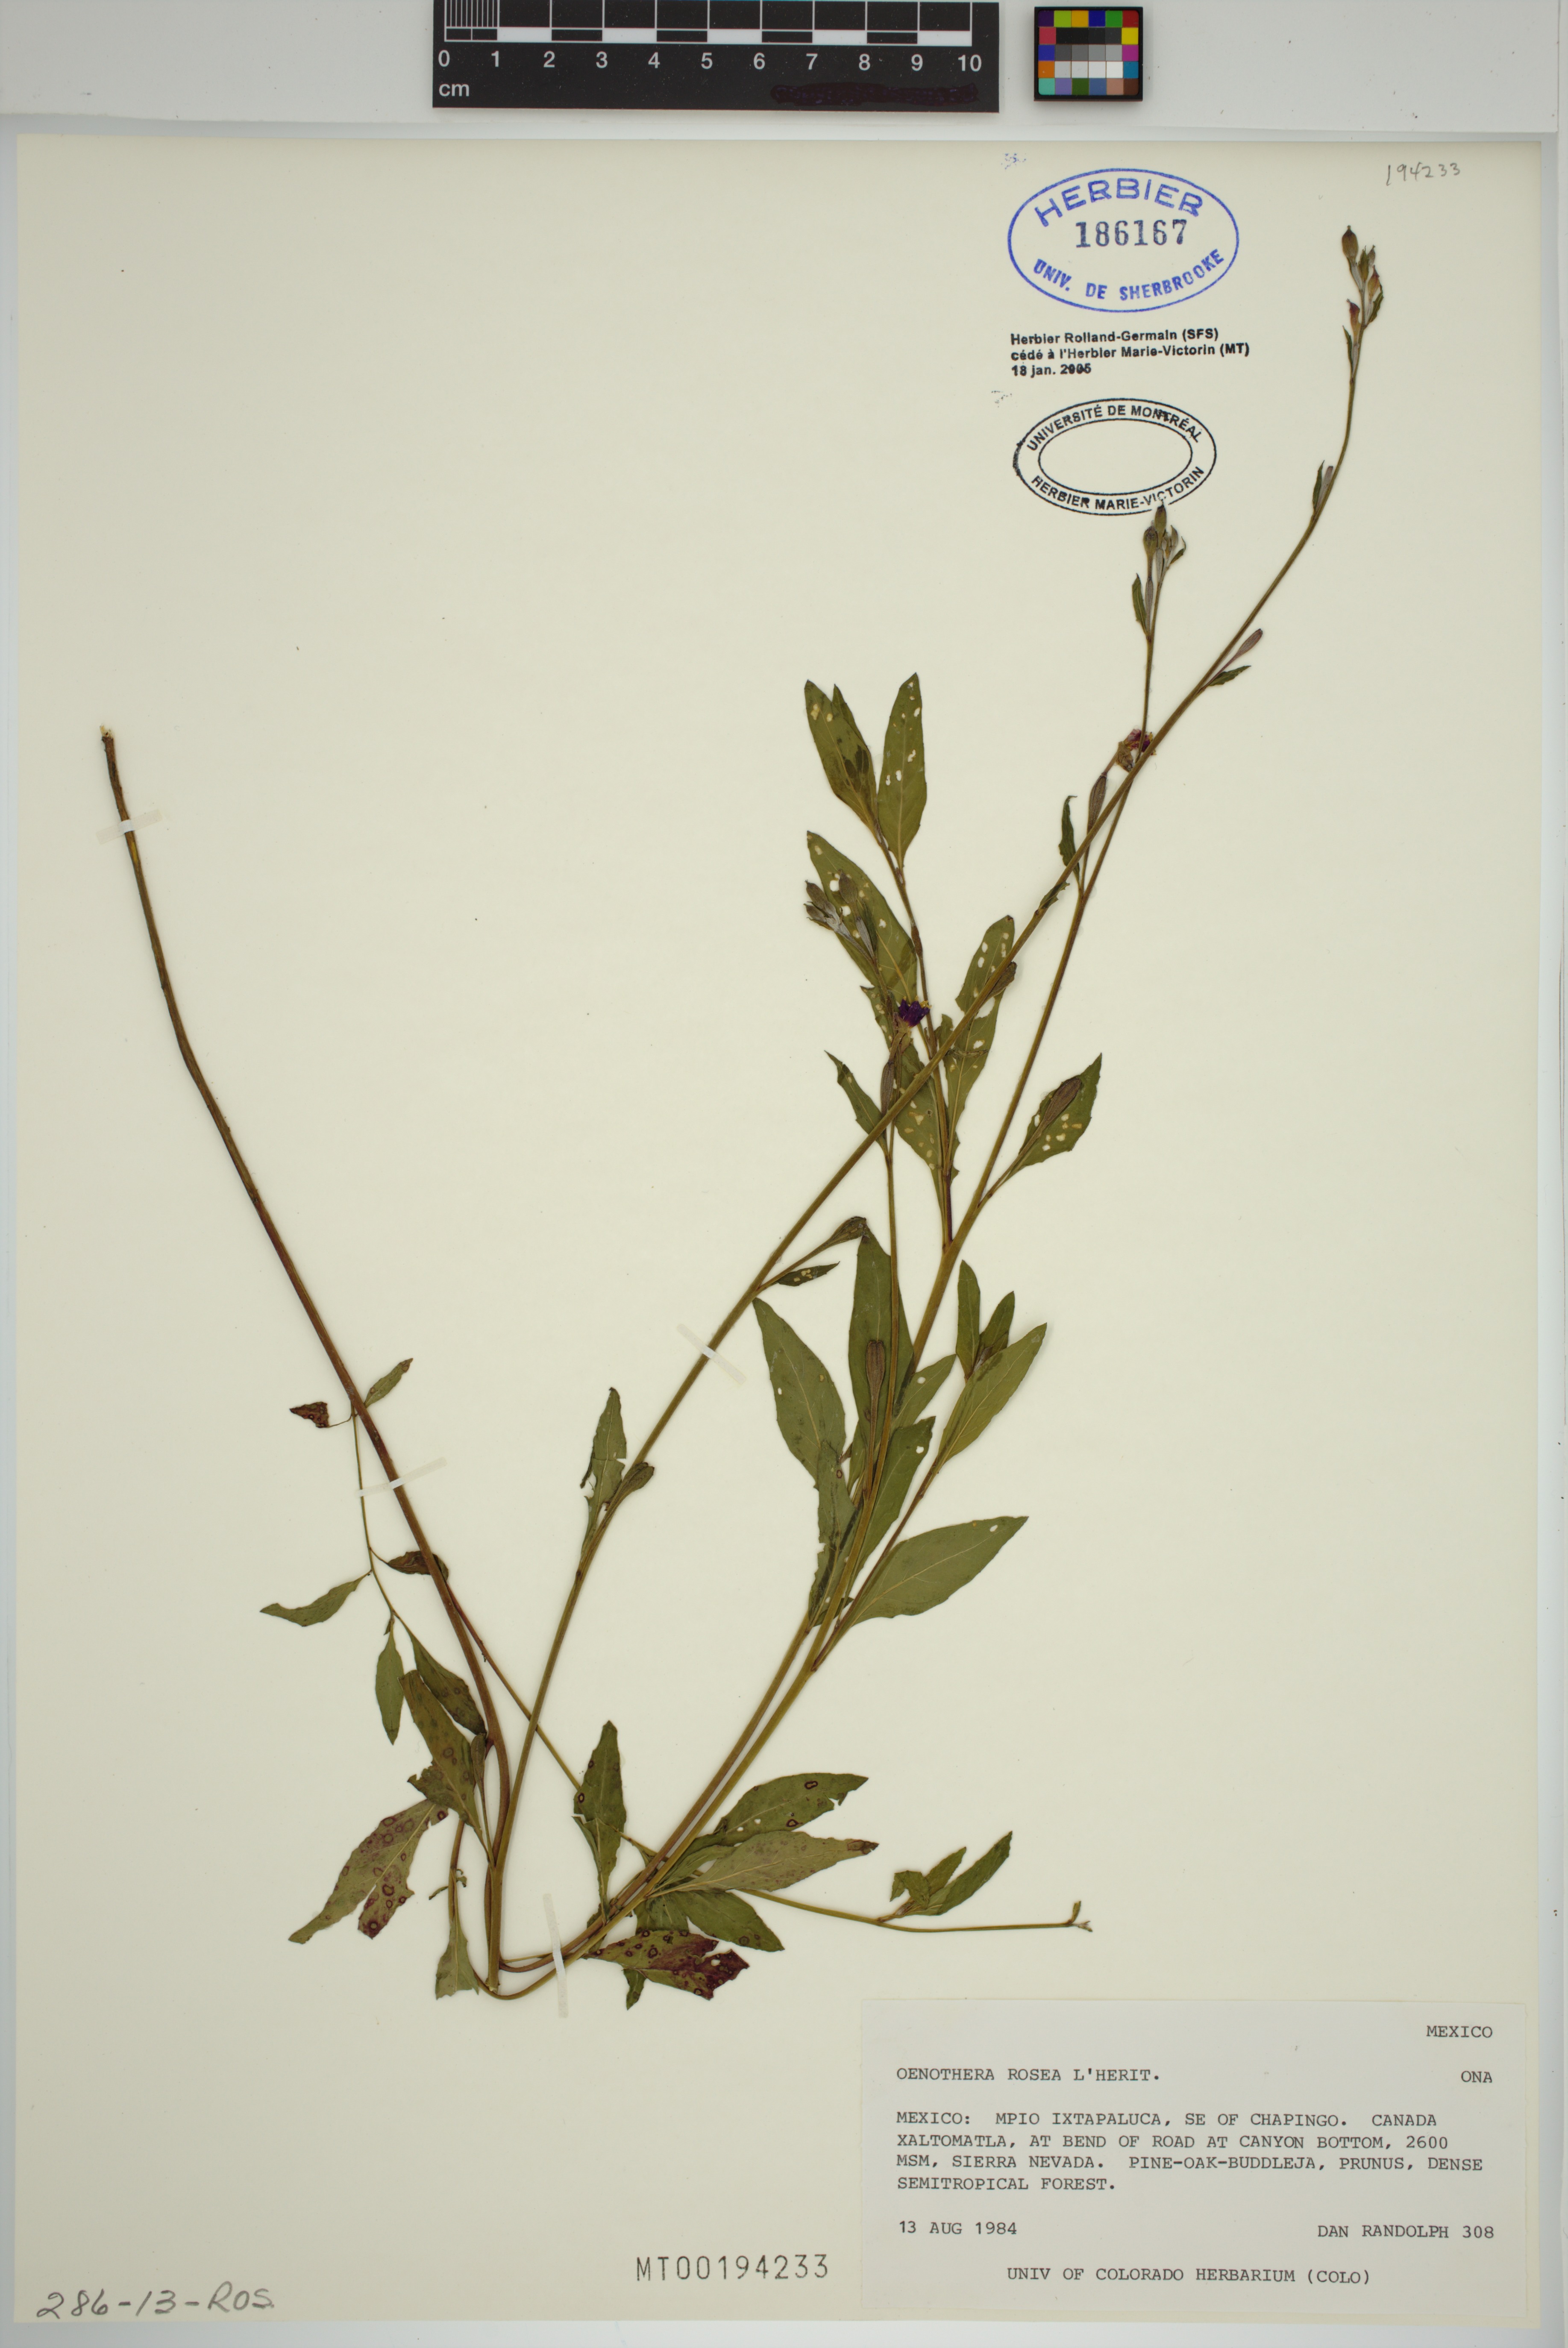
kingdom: Plantae
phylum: Tracheophyta
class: Magnoliopsida
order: Myrtales
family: Onagraceae
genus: Oenothera
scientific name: Oenothera rosea
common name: Rosy evening-primrose
